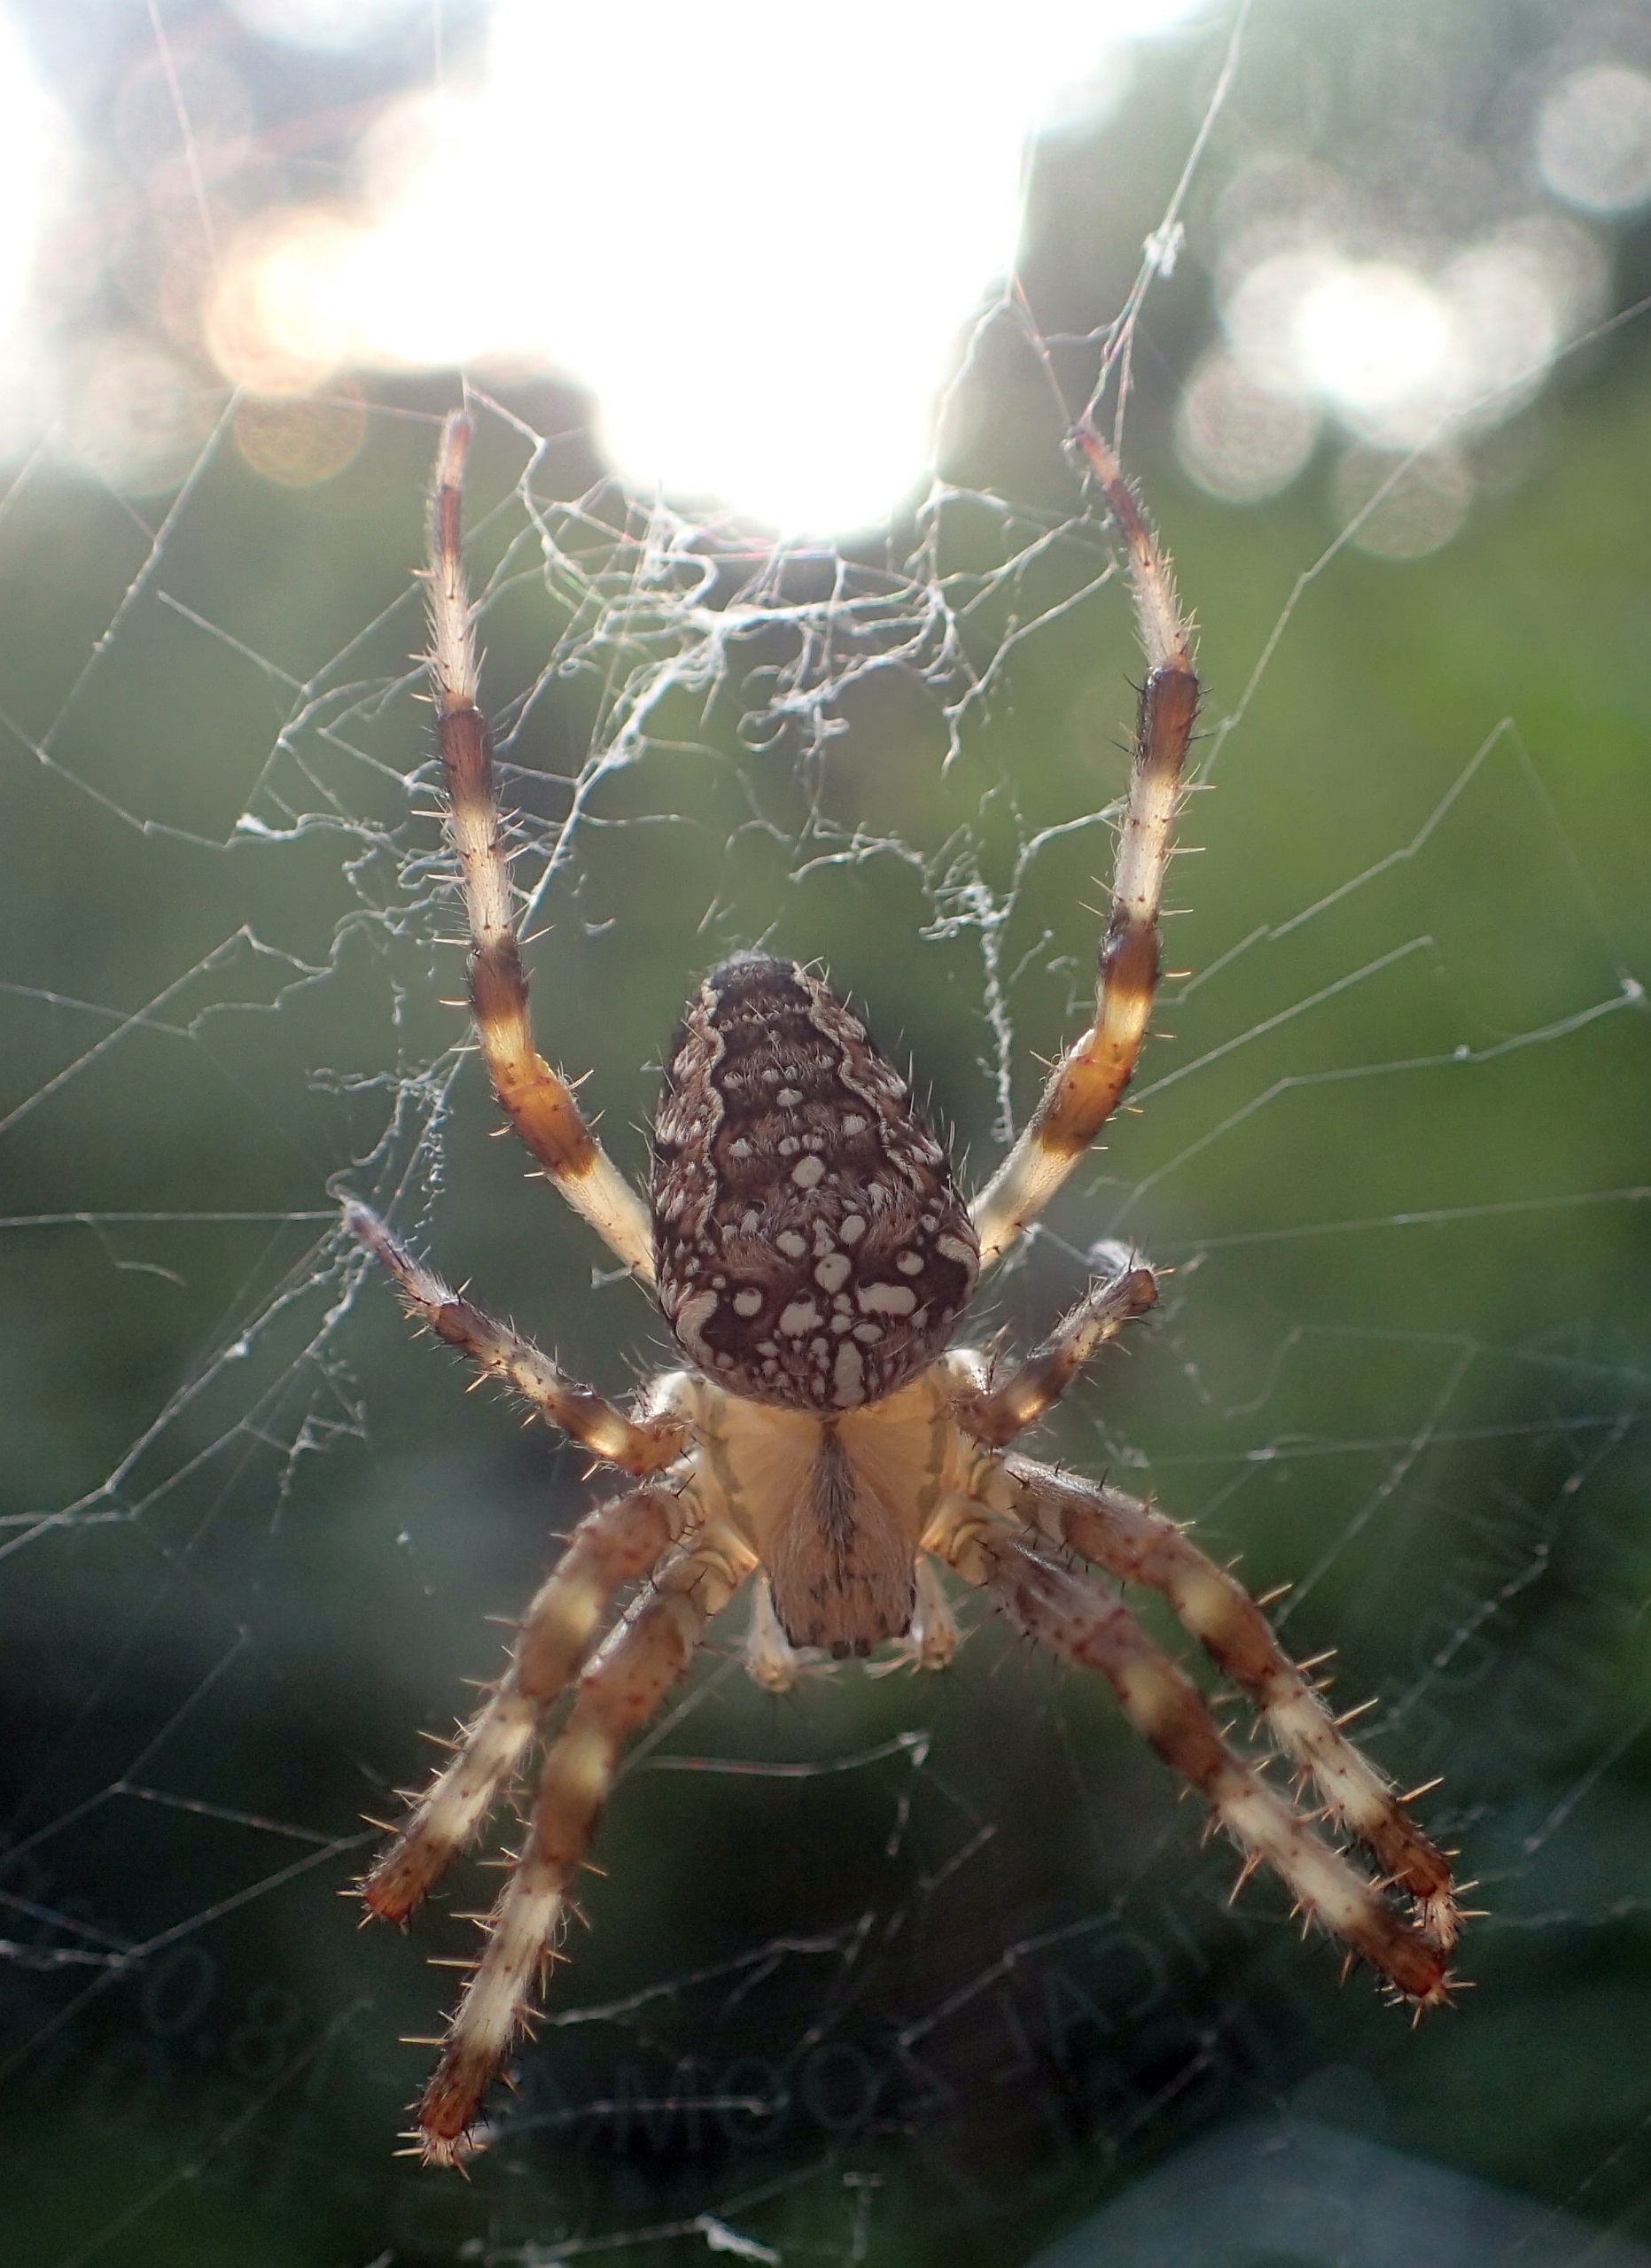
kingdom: Animalia
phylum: Arthropoda
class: Arachnida
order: Araneae
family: Araneidae
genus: Araneus
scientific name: Araneus diadematus
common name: Korsedderkop
